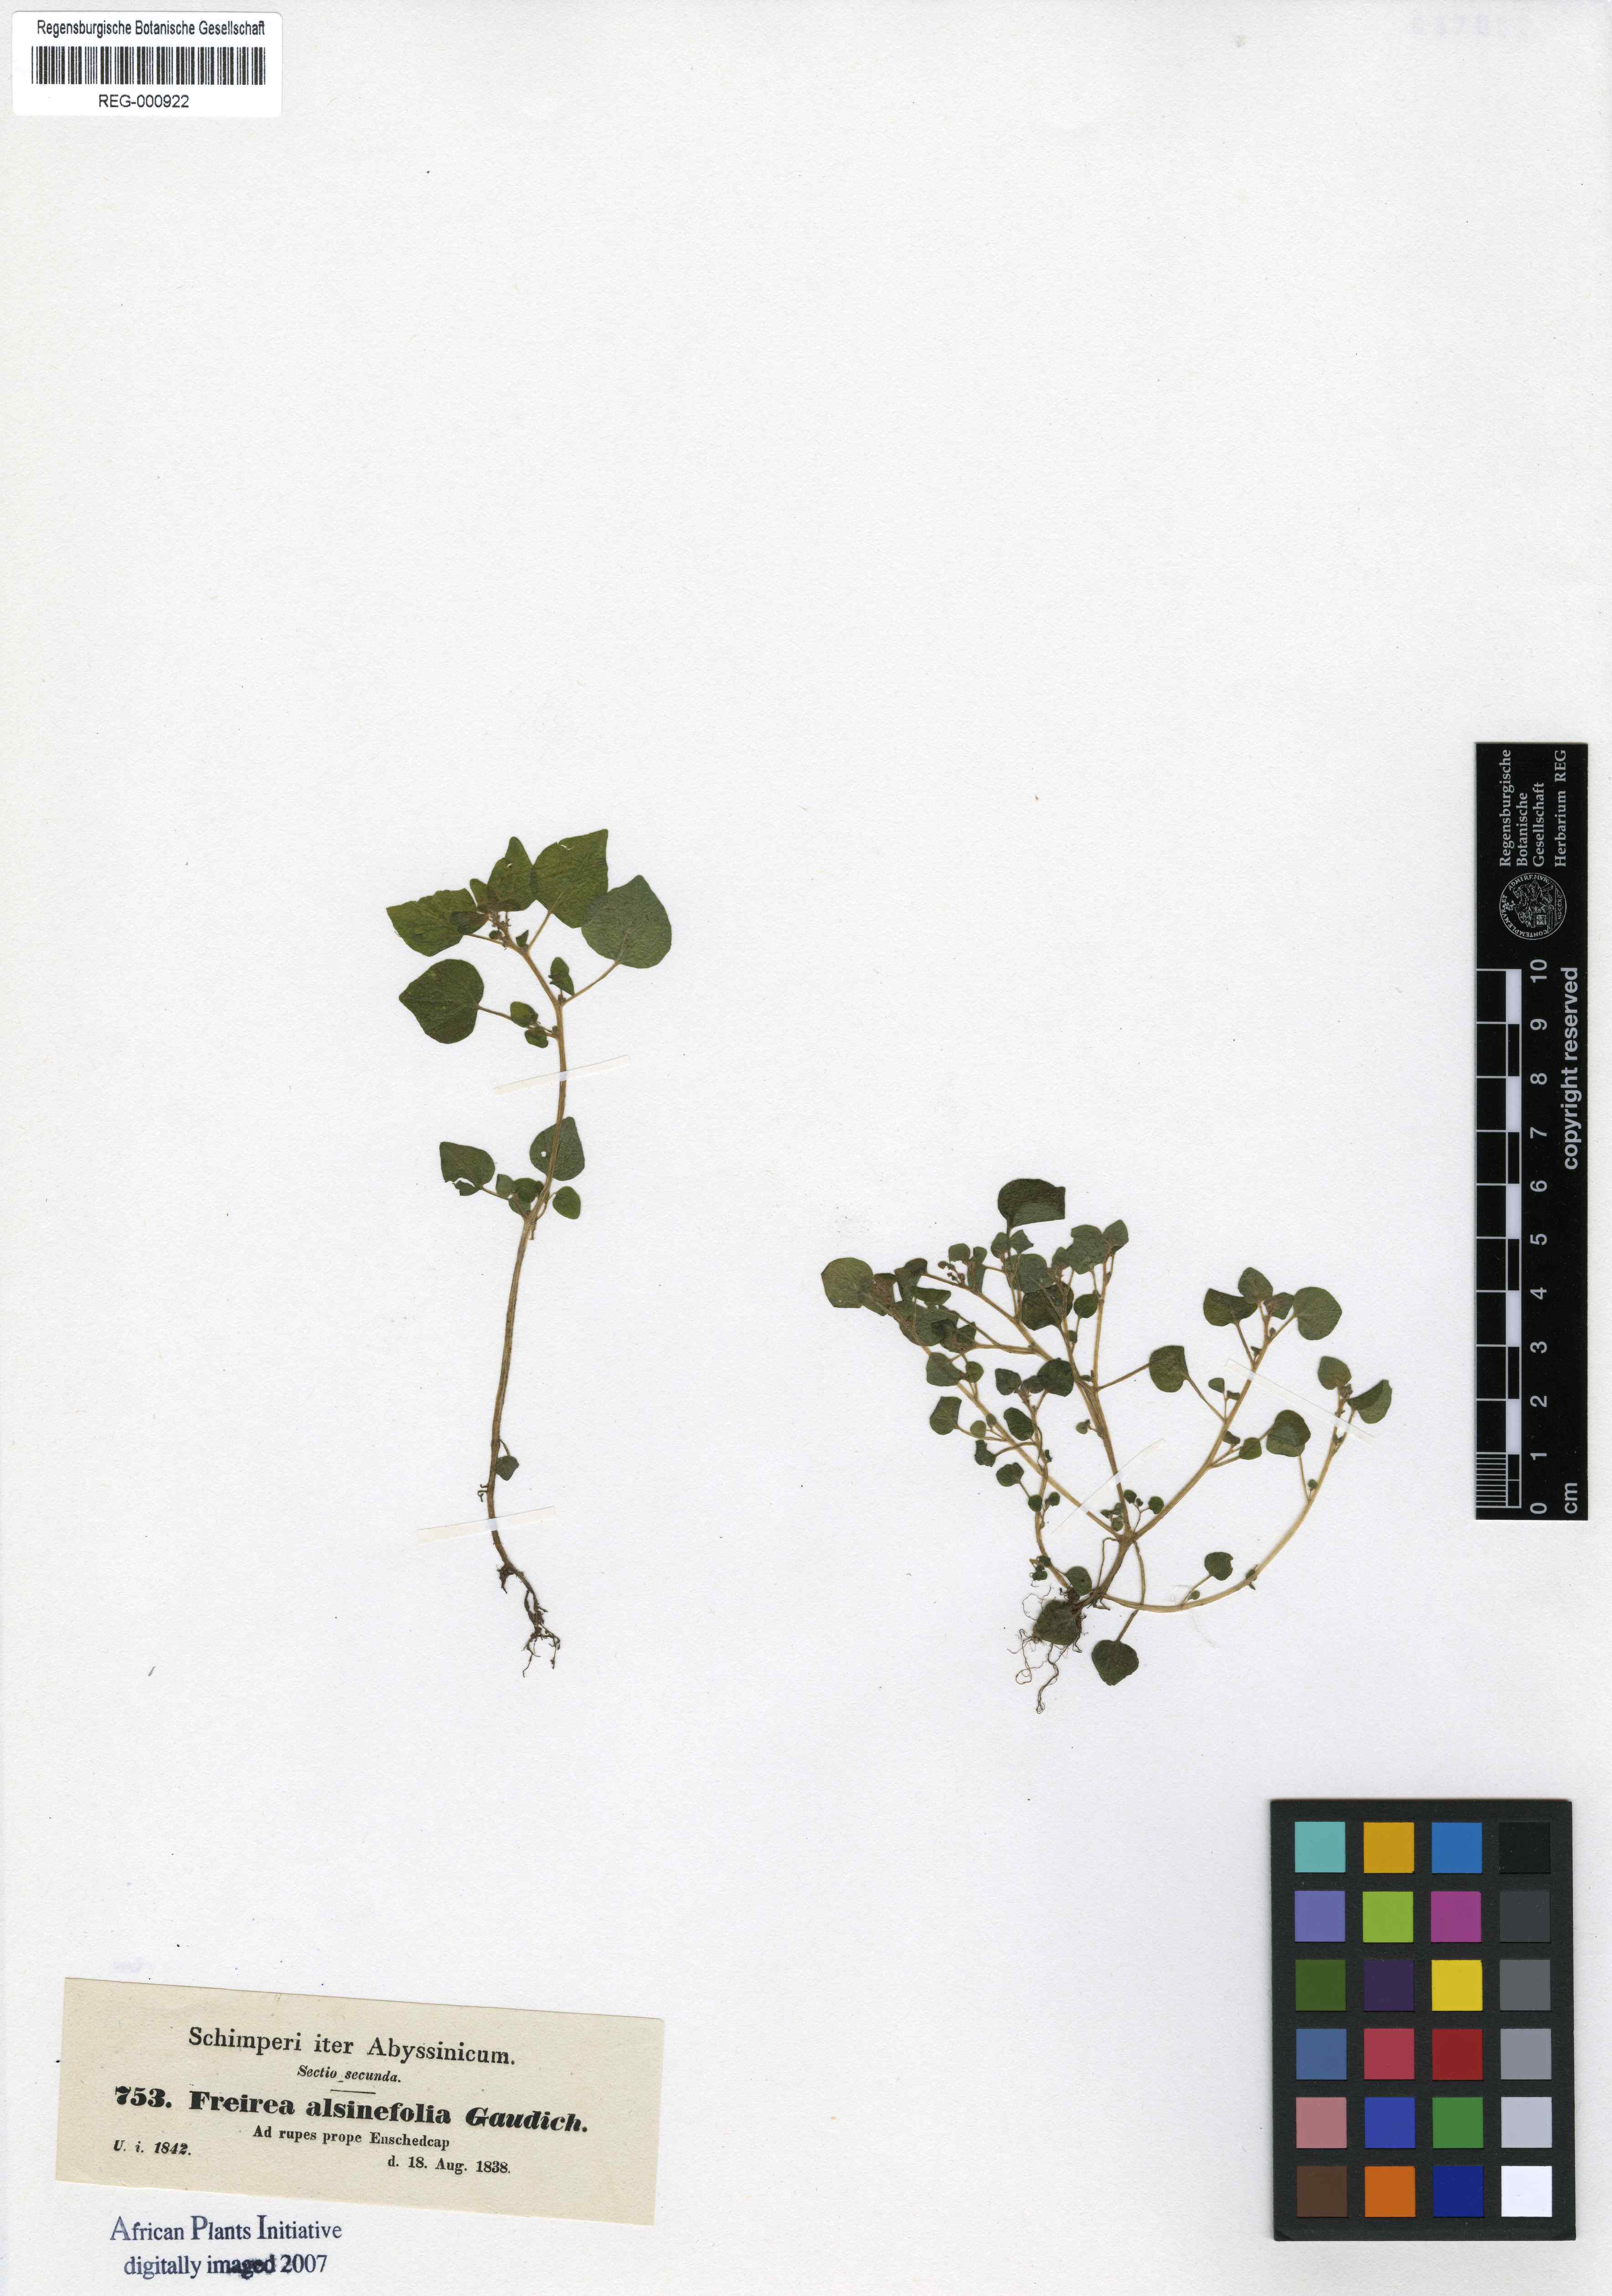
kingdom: Plantae
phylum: Tracheophyta
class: Magnoliopsida
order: Rosales
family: Urticaceae
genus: Parietaria
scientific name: Parietaria alsinefolia
